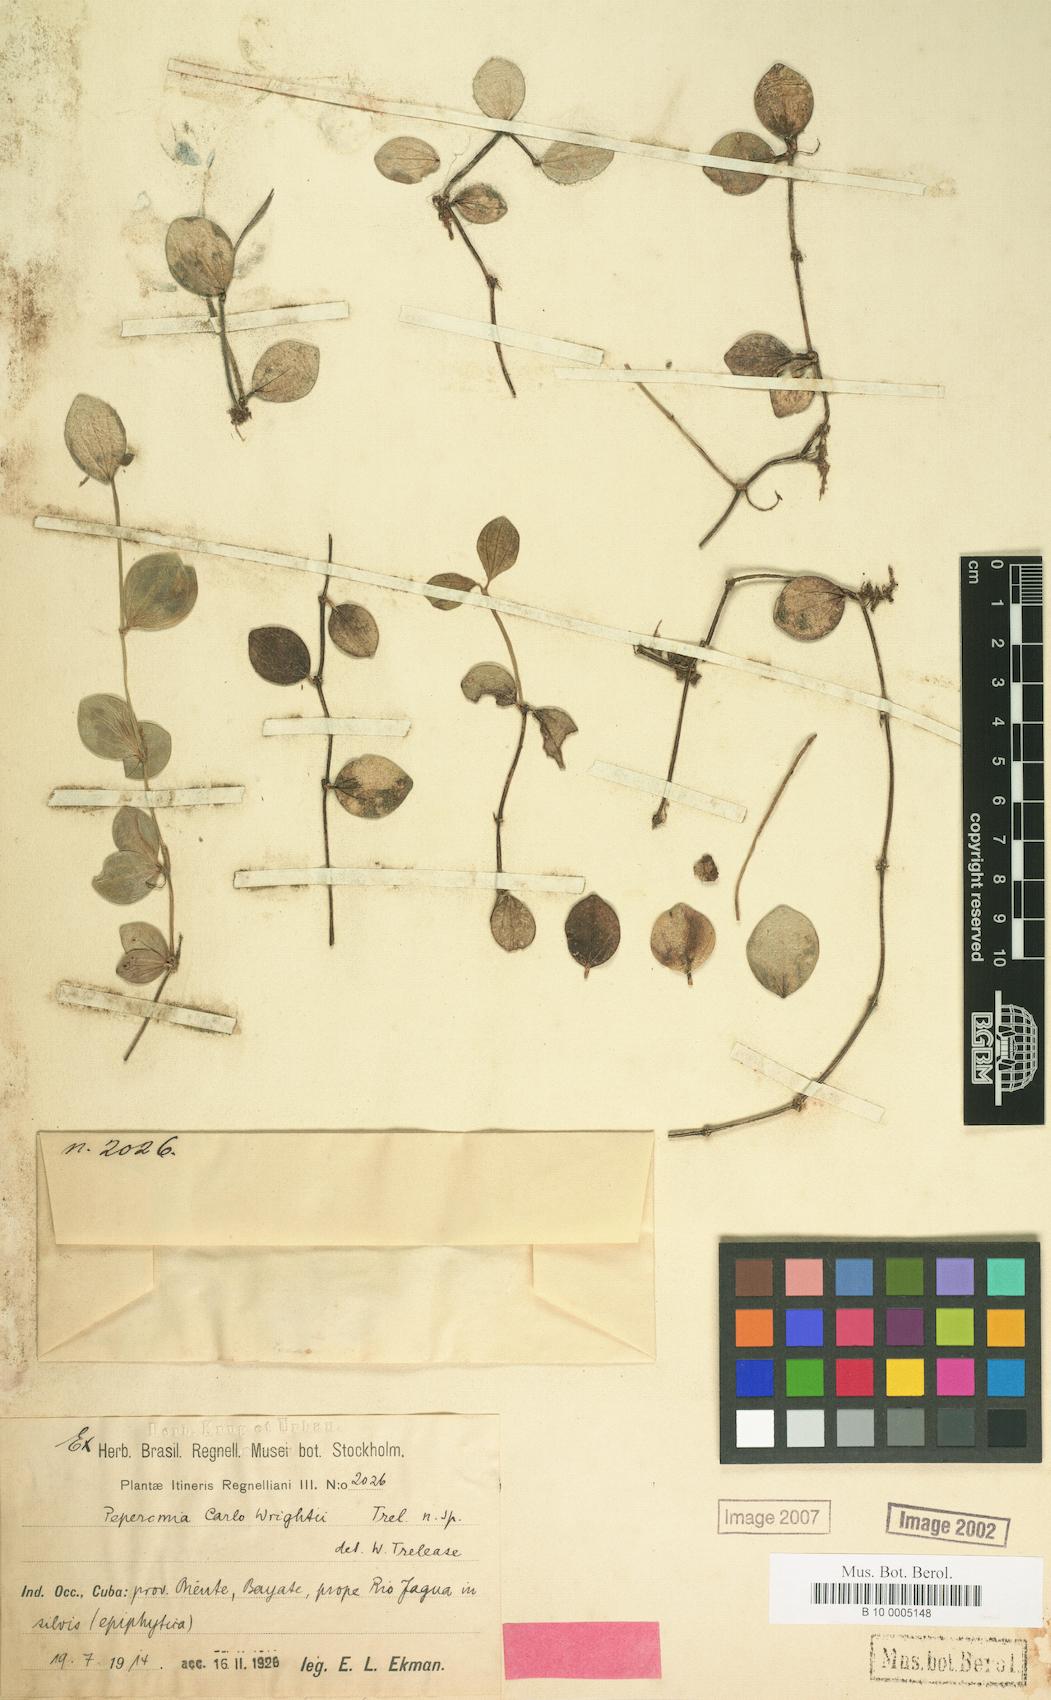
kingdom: Plantae
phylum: Tracheophyta
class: Magnoliopsida
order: Piperales
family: Piperaceae
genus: Peperomia
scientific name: Peperomia quadrangularis
